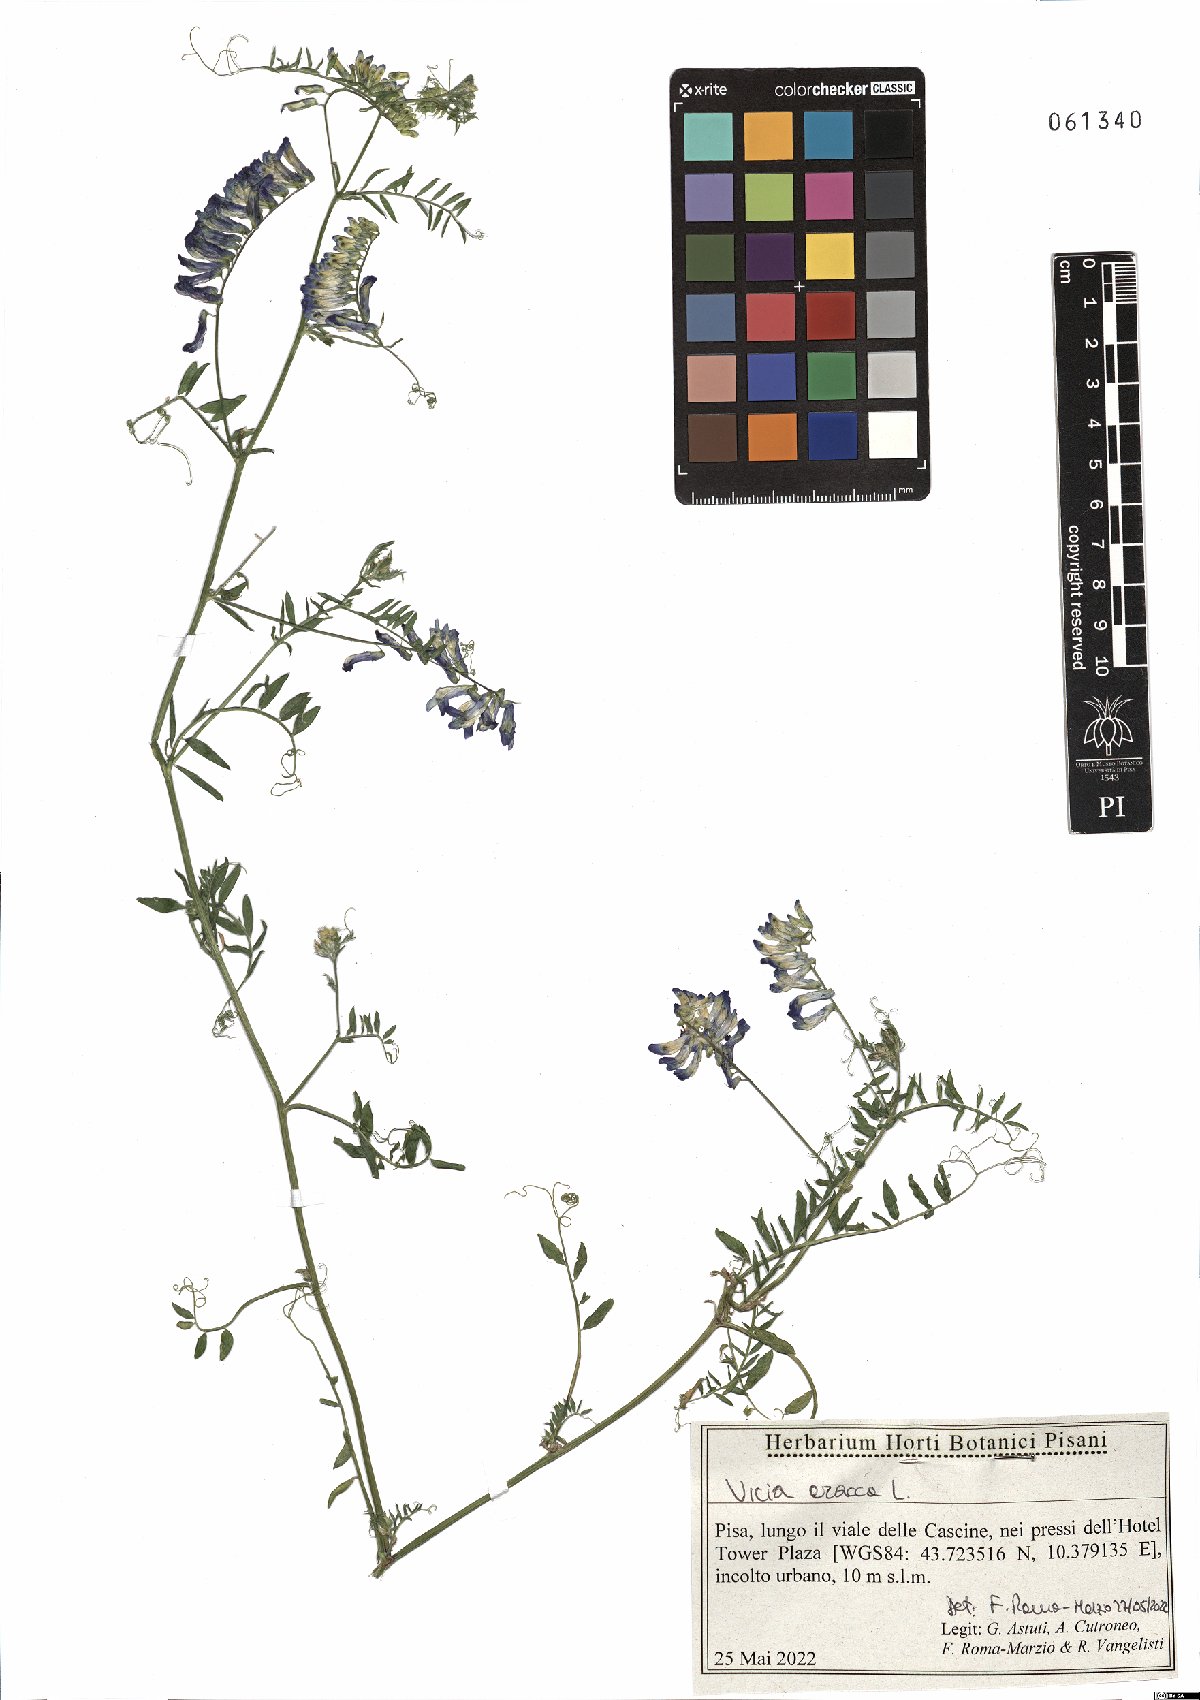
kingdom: Plantae
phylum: Tracheophyta
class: Magnoliopsida
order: Fabales
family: Fabaceae
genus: Vicia
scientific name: Vicia cracca
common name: Bird vetch
